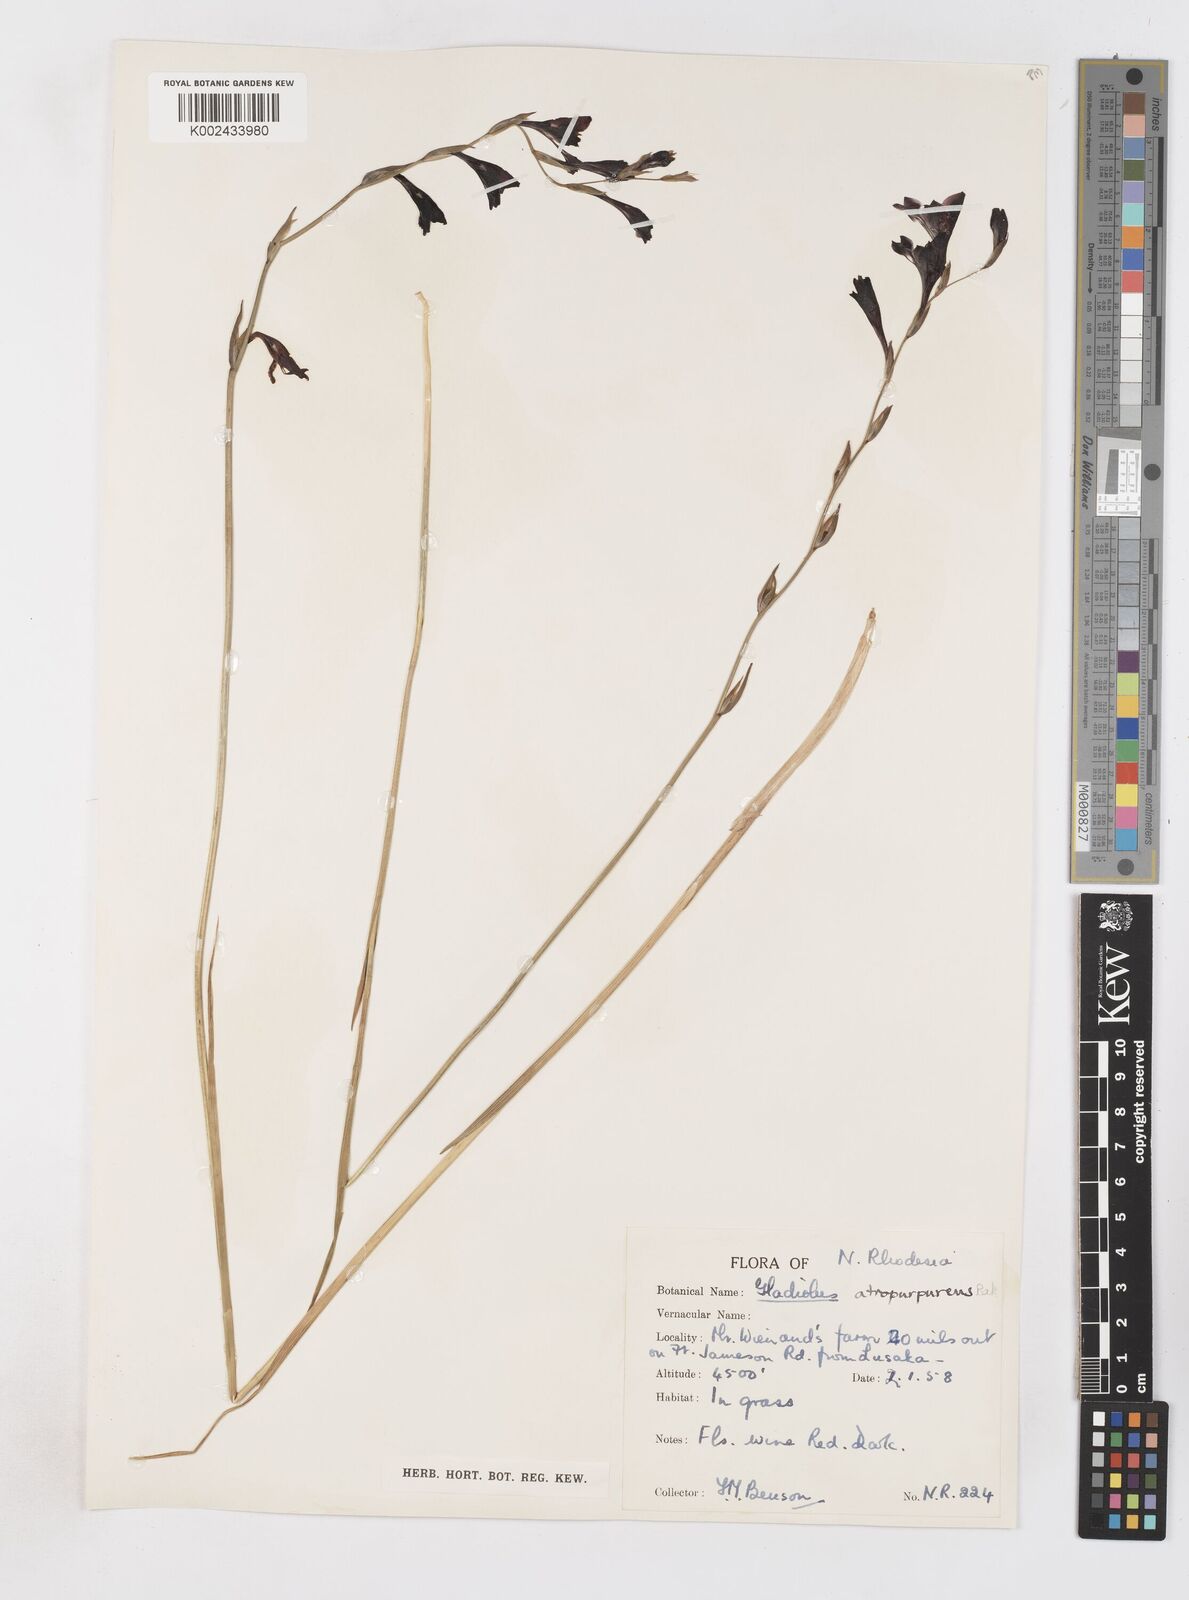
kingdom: Plantae
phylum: Tracheophyta
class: Liliopsida
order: Asparagales
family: Iridaceae
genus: Gladiolus
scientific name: Gladiolus atropurpureus
